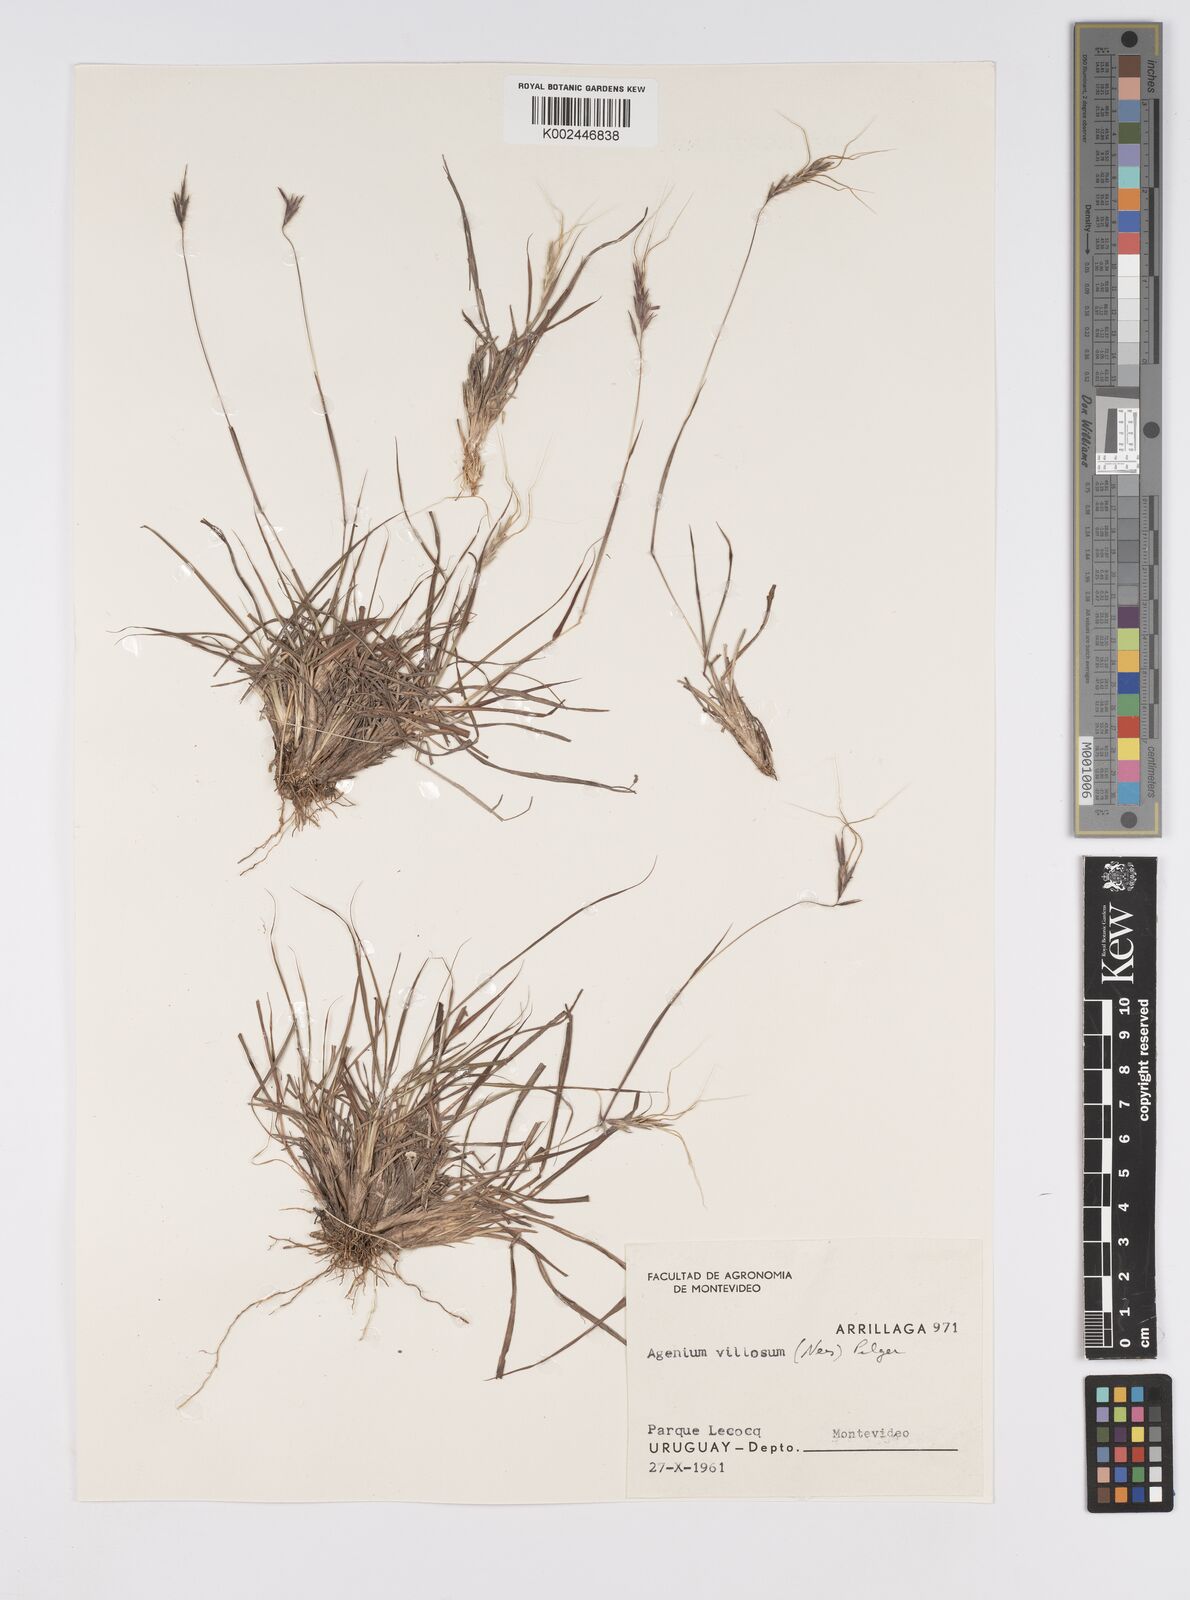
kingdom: Plantae
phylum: Tracheophyta
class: Liliopsida
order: Poales
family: Poaceae
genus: Agenium
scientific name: Agenium villosum
